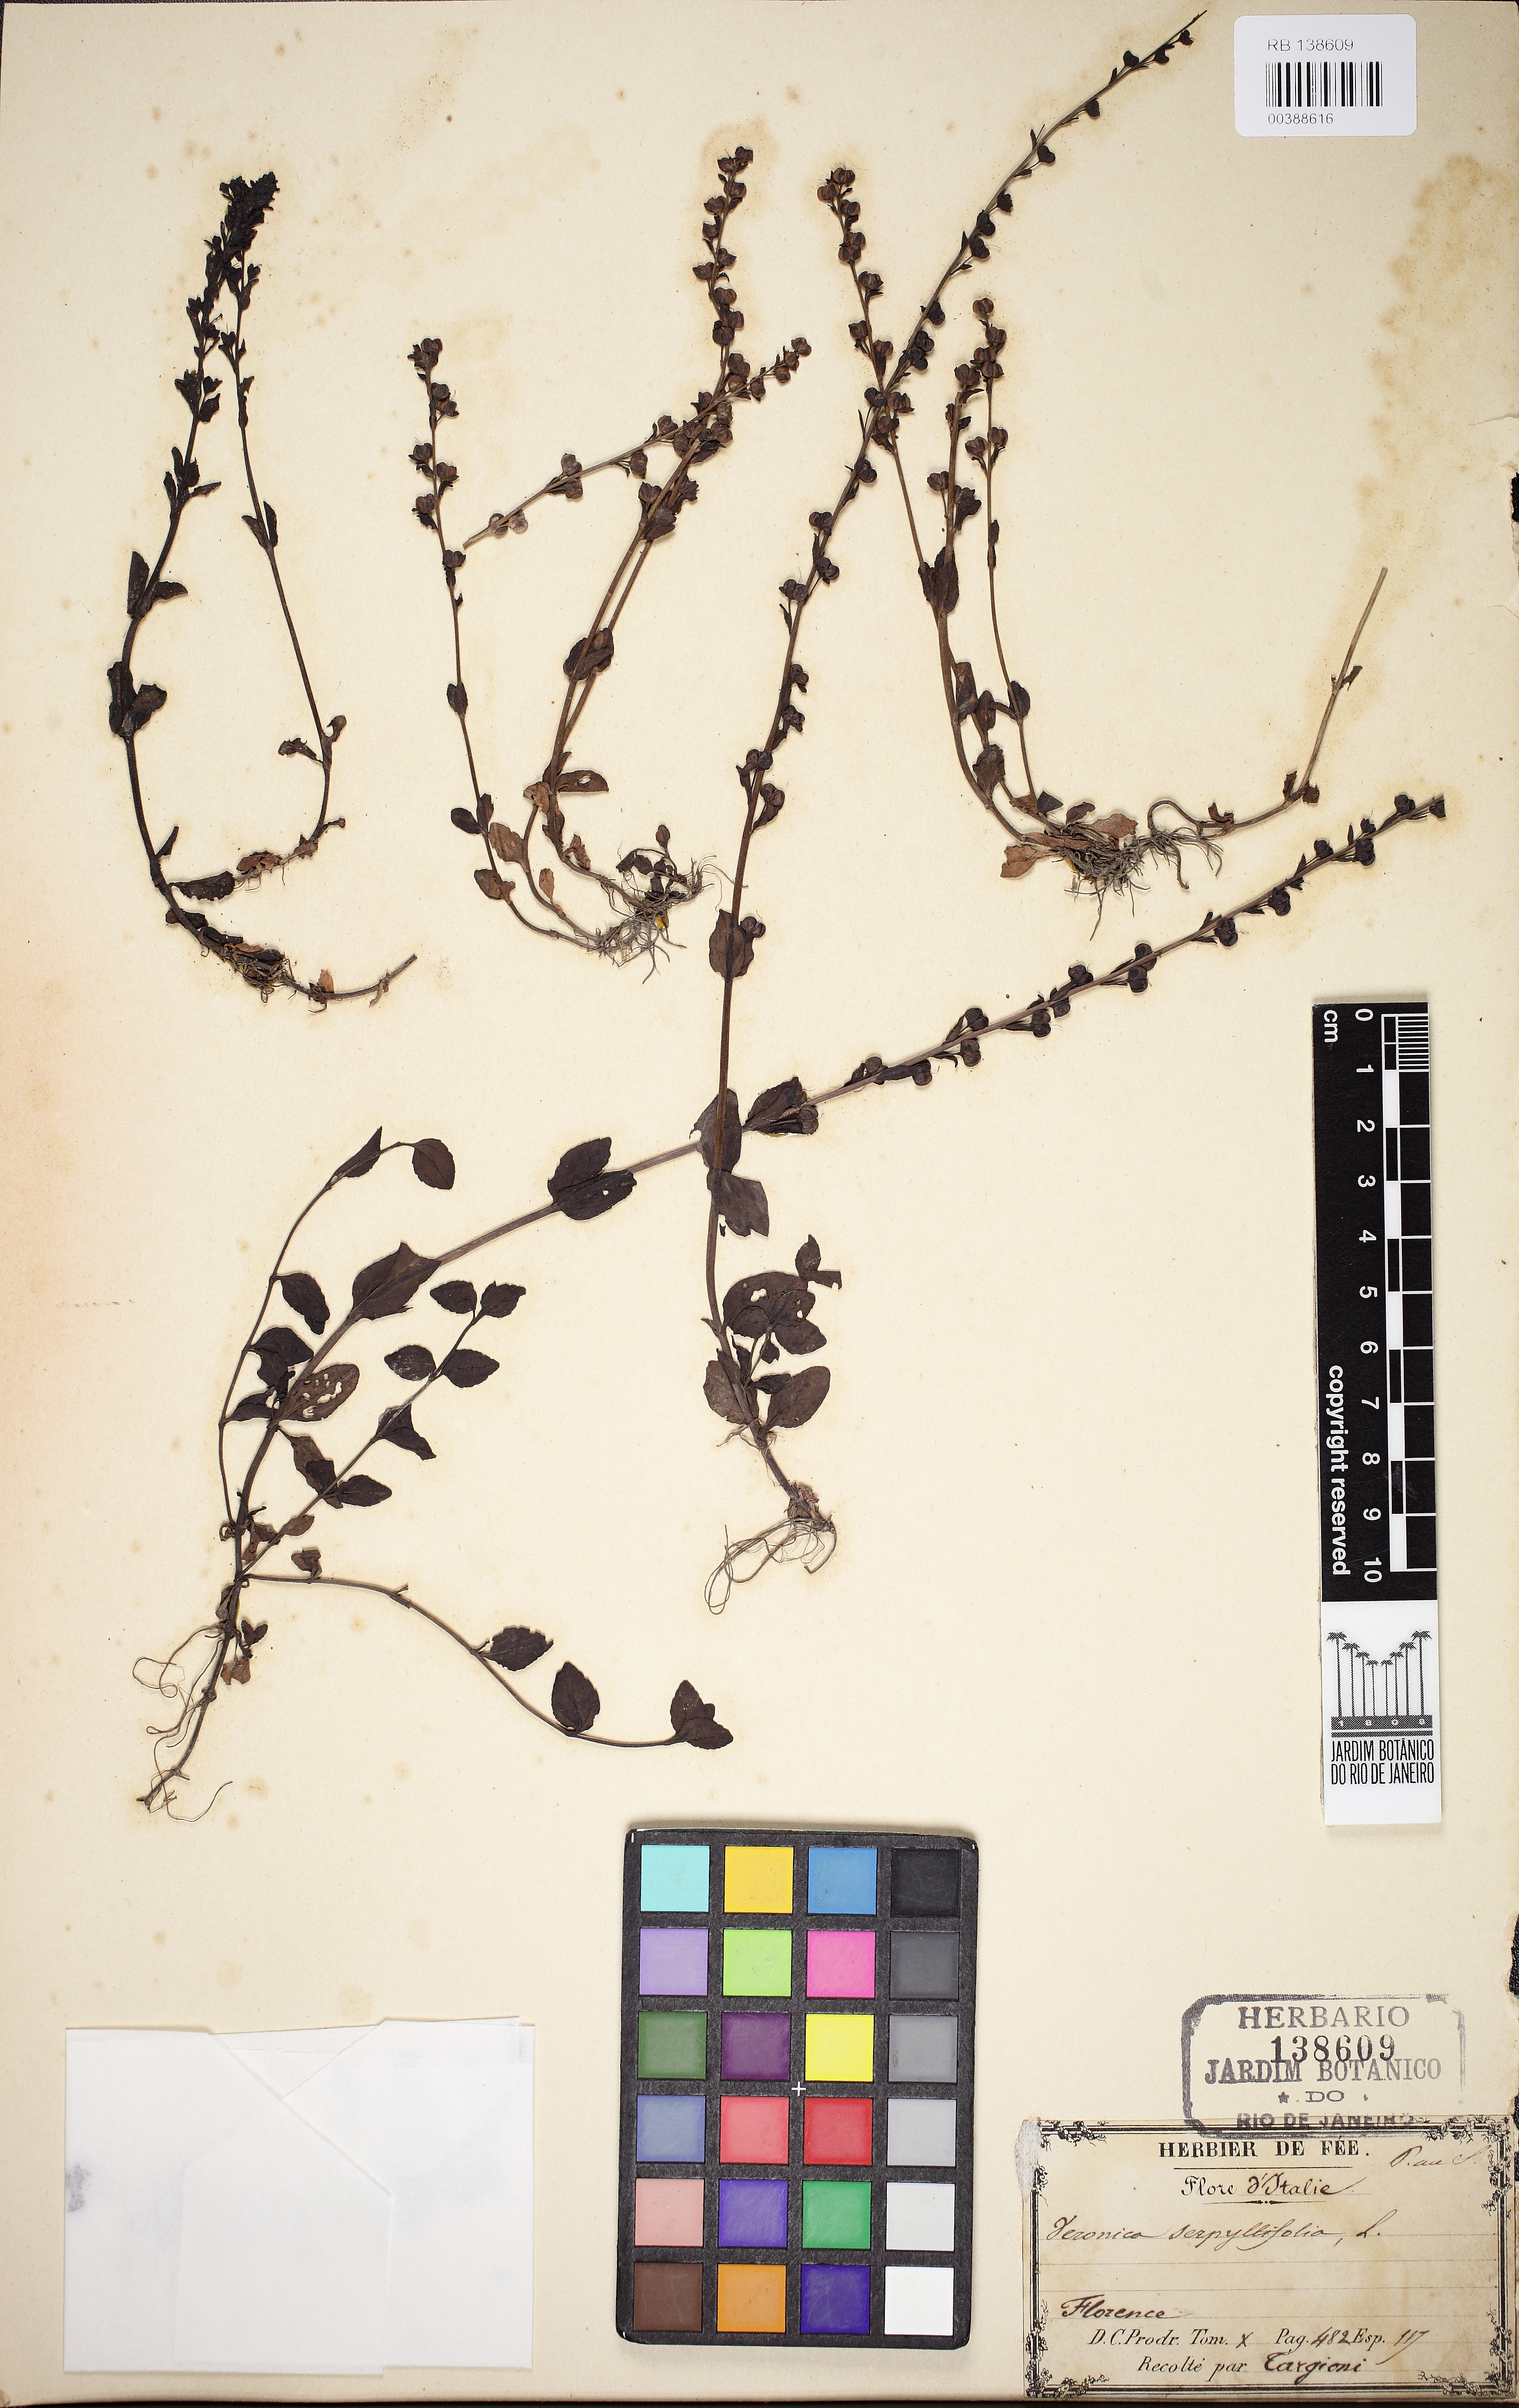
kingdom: Plantae
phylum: Tracheophyta
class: Magnoliopsida
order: Lamiales
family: Plantaginaceae
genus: Veronica
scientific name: Veronica serpyllifolia
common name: Thyme-leaved speedwell
